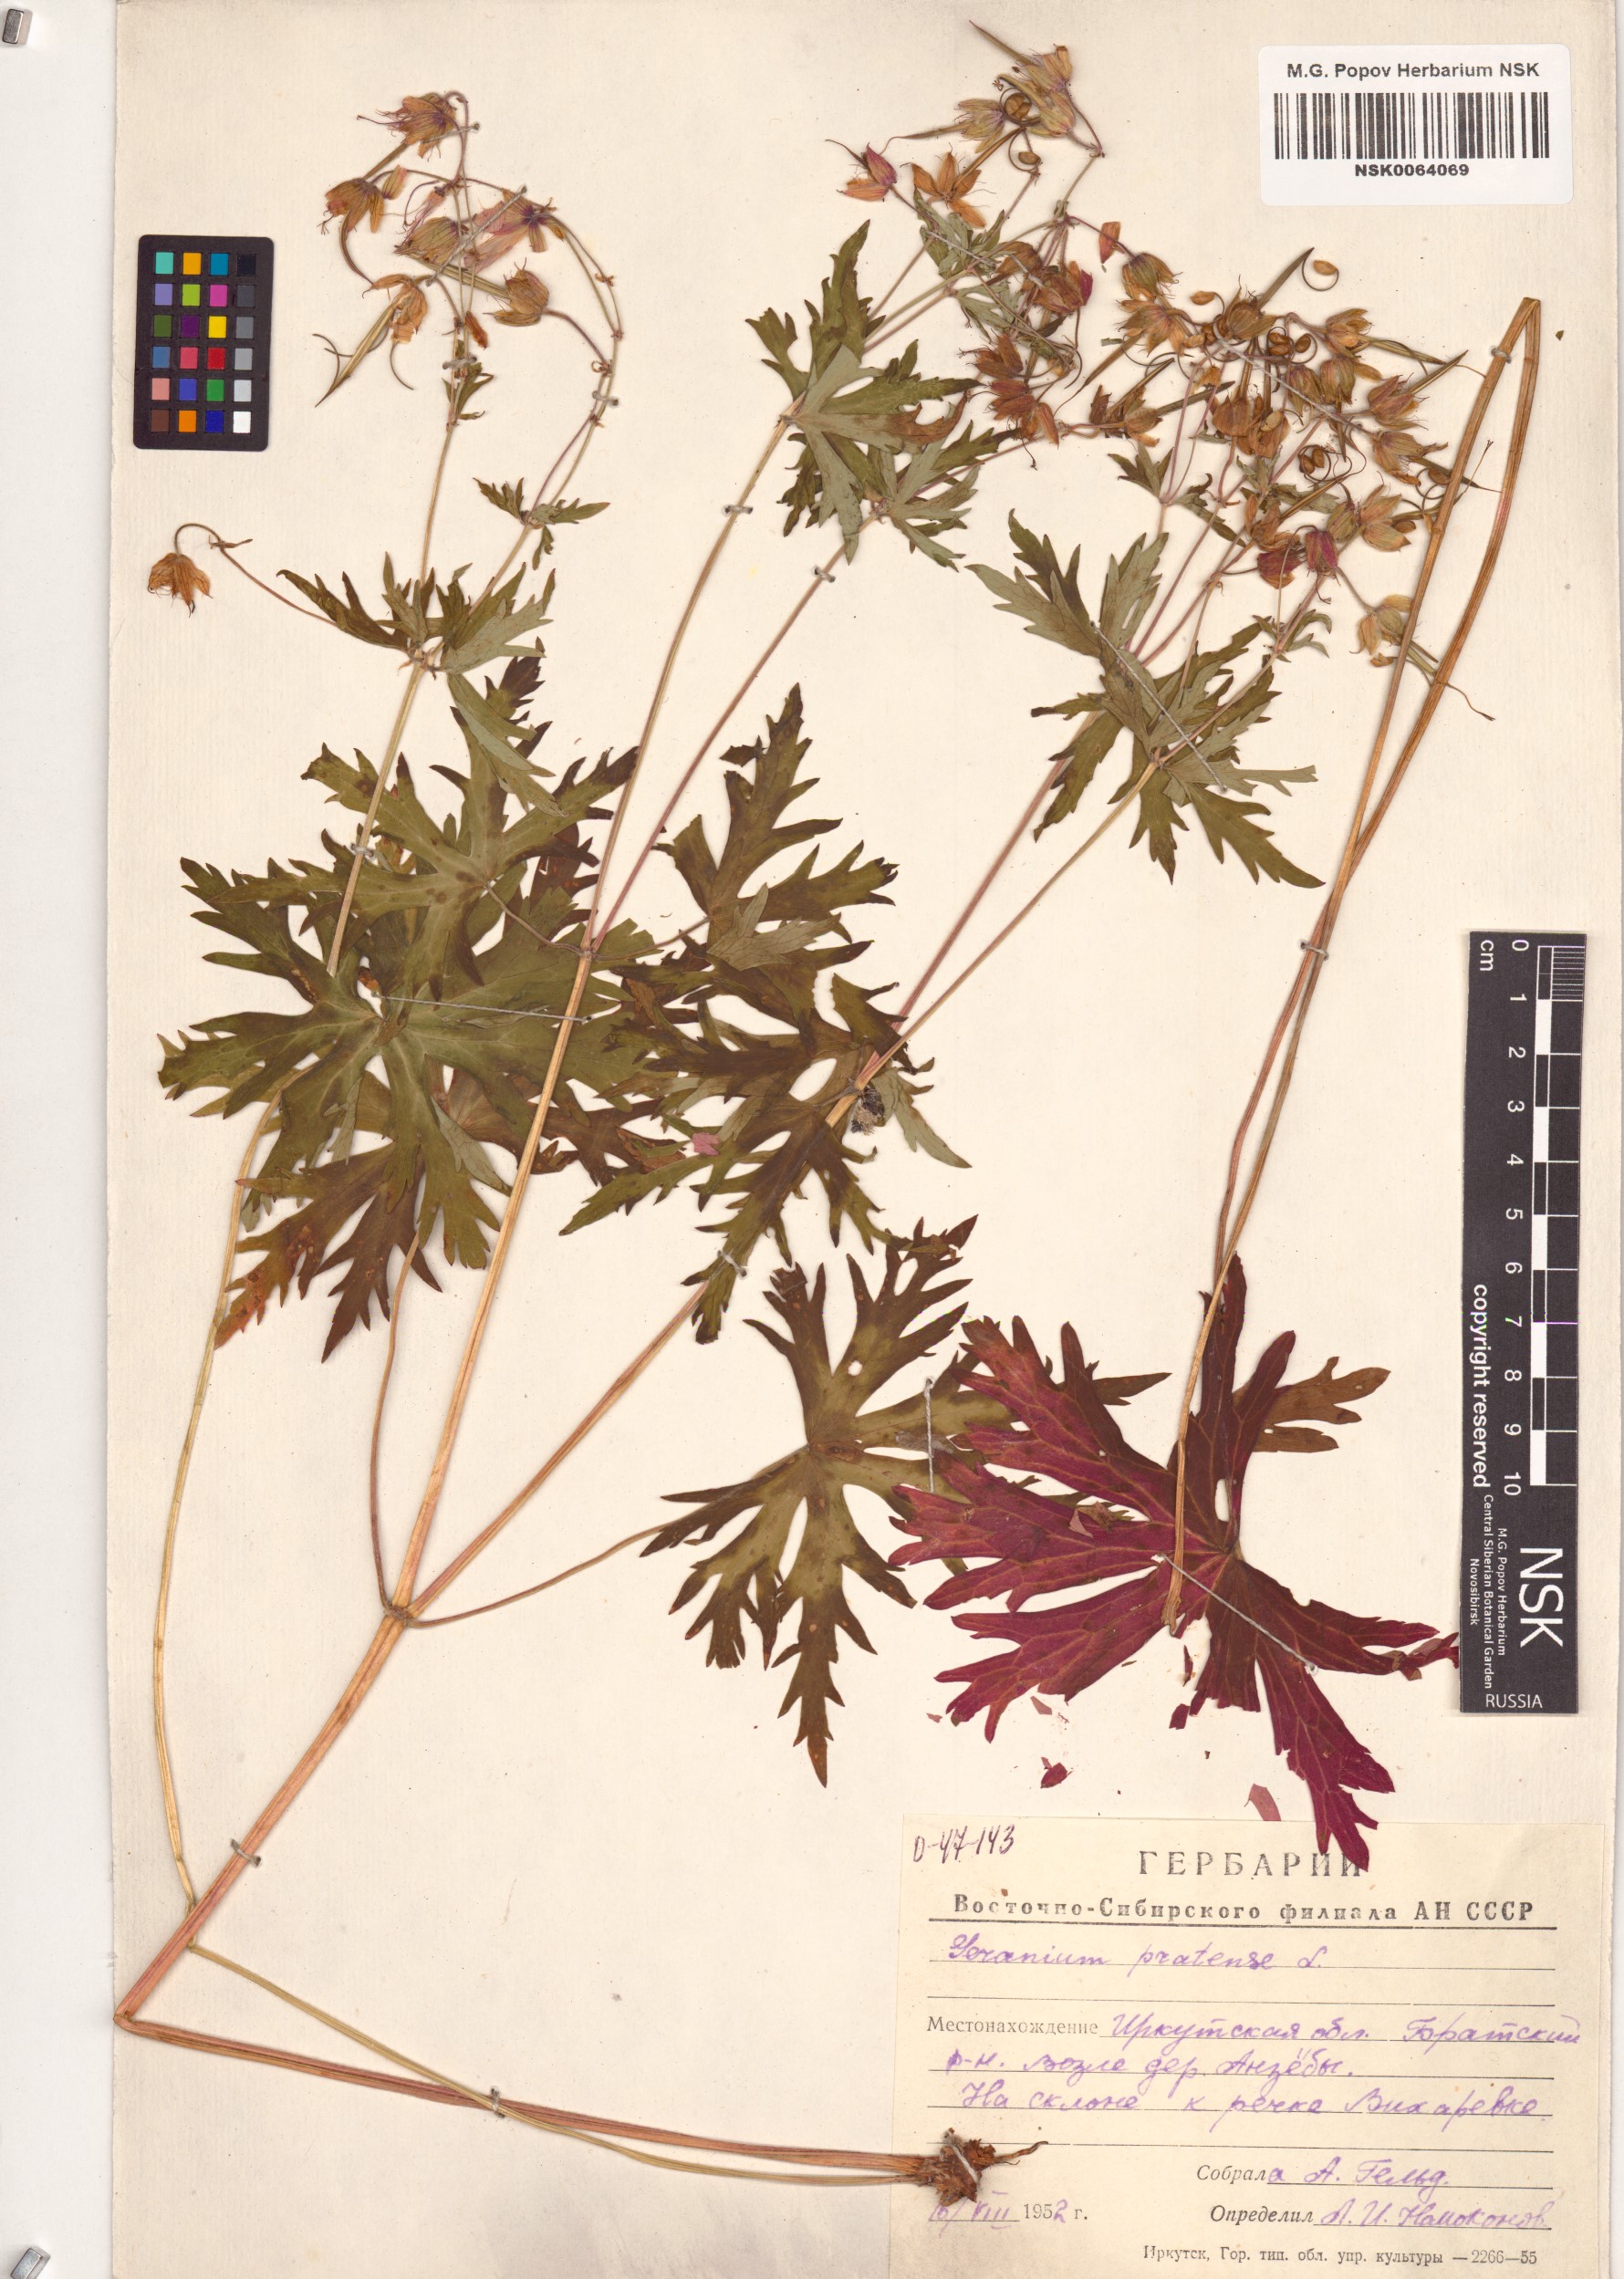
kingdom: Plantae
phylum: Tracheophyta
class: Magnoliopsida
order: Geraniales
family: Geraniaceae
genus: Geranium
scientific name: Geranium pratense
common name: Meadow crane's-bill
